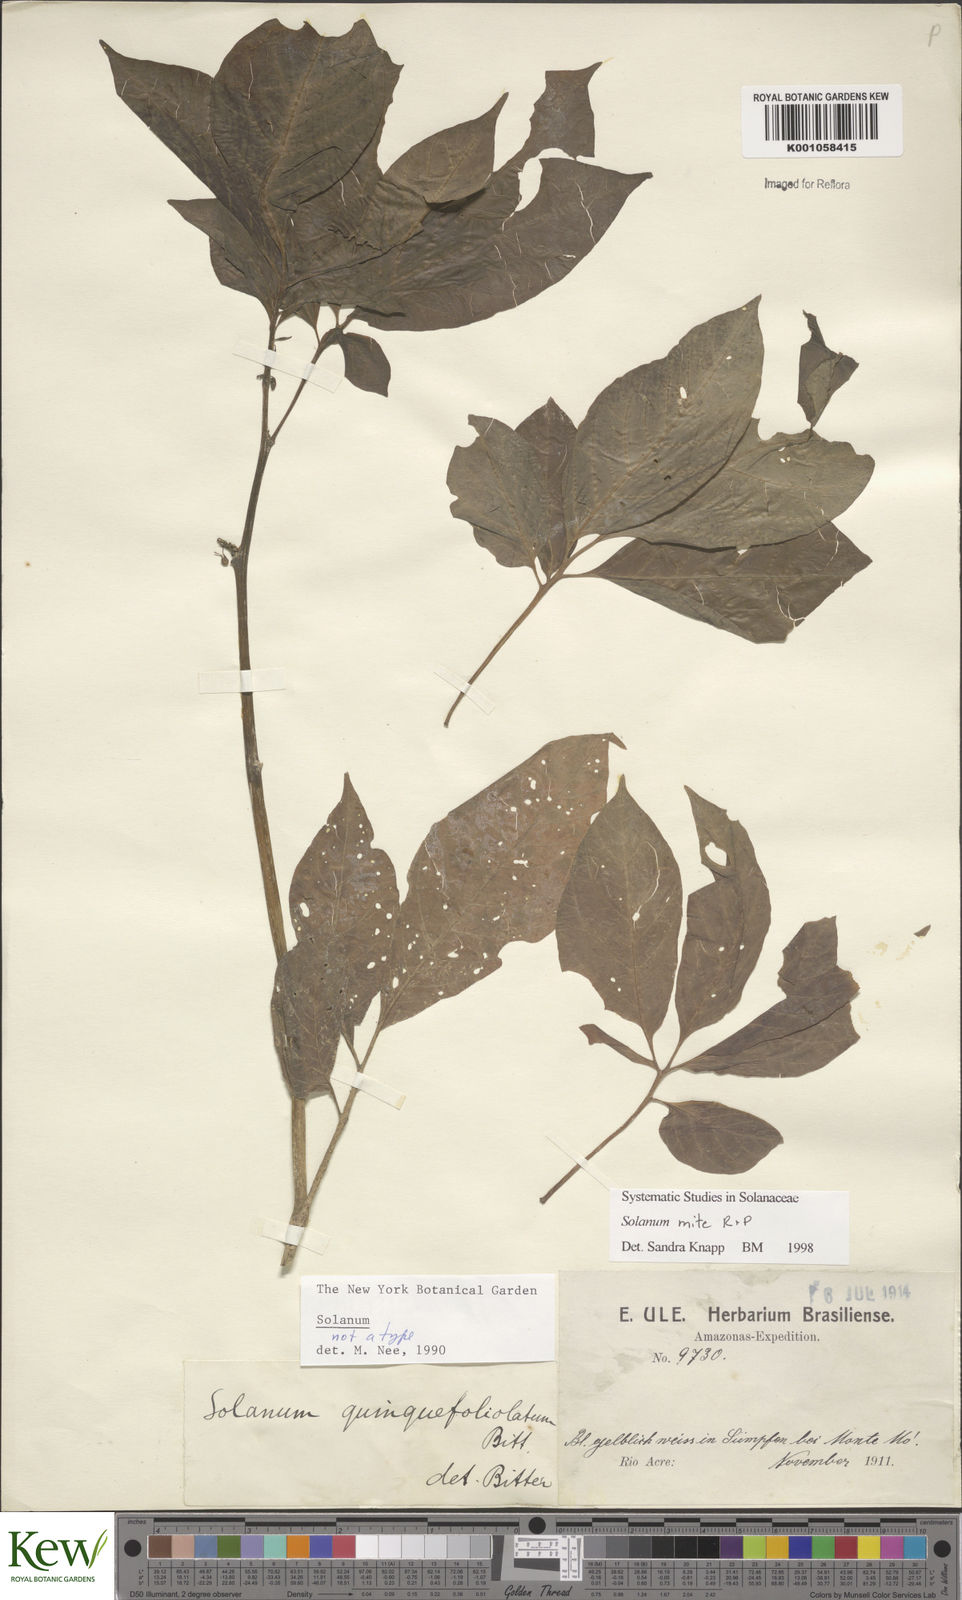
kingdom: Plantae
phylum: Tracheophyta
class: Magnoliopsida
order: Solanales
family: Solanaceae
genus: Solanum
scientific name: Solanum mite
